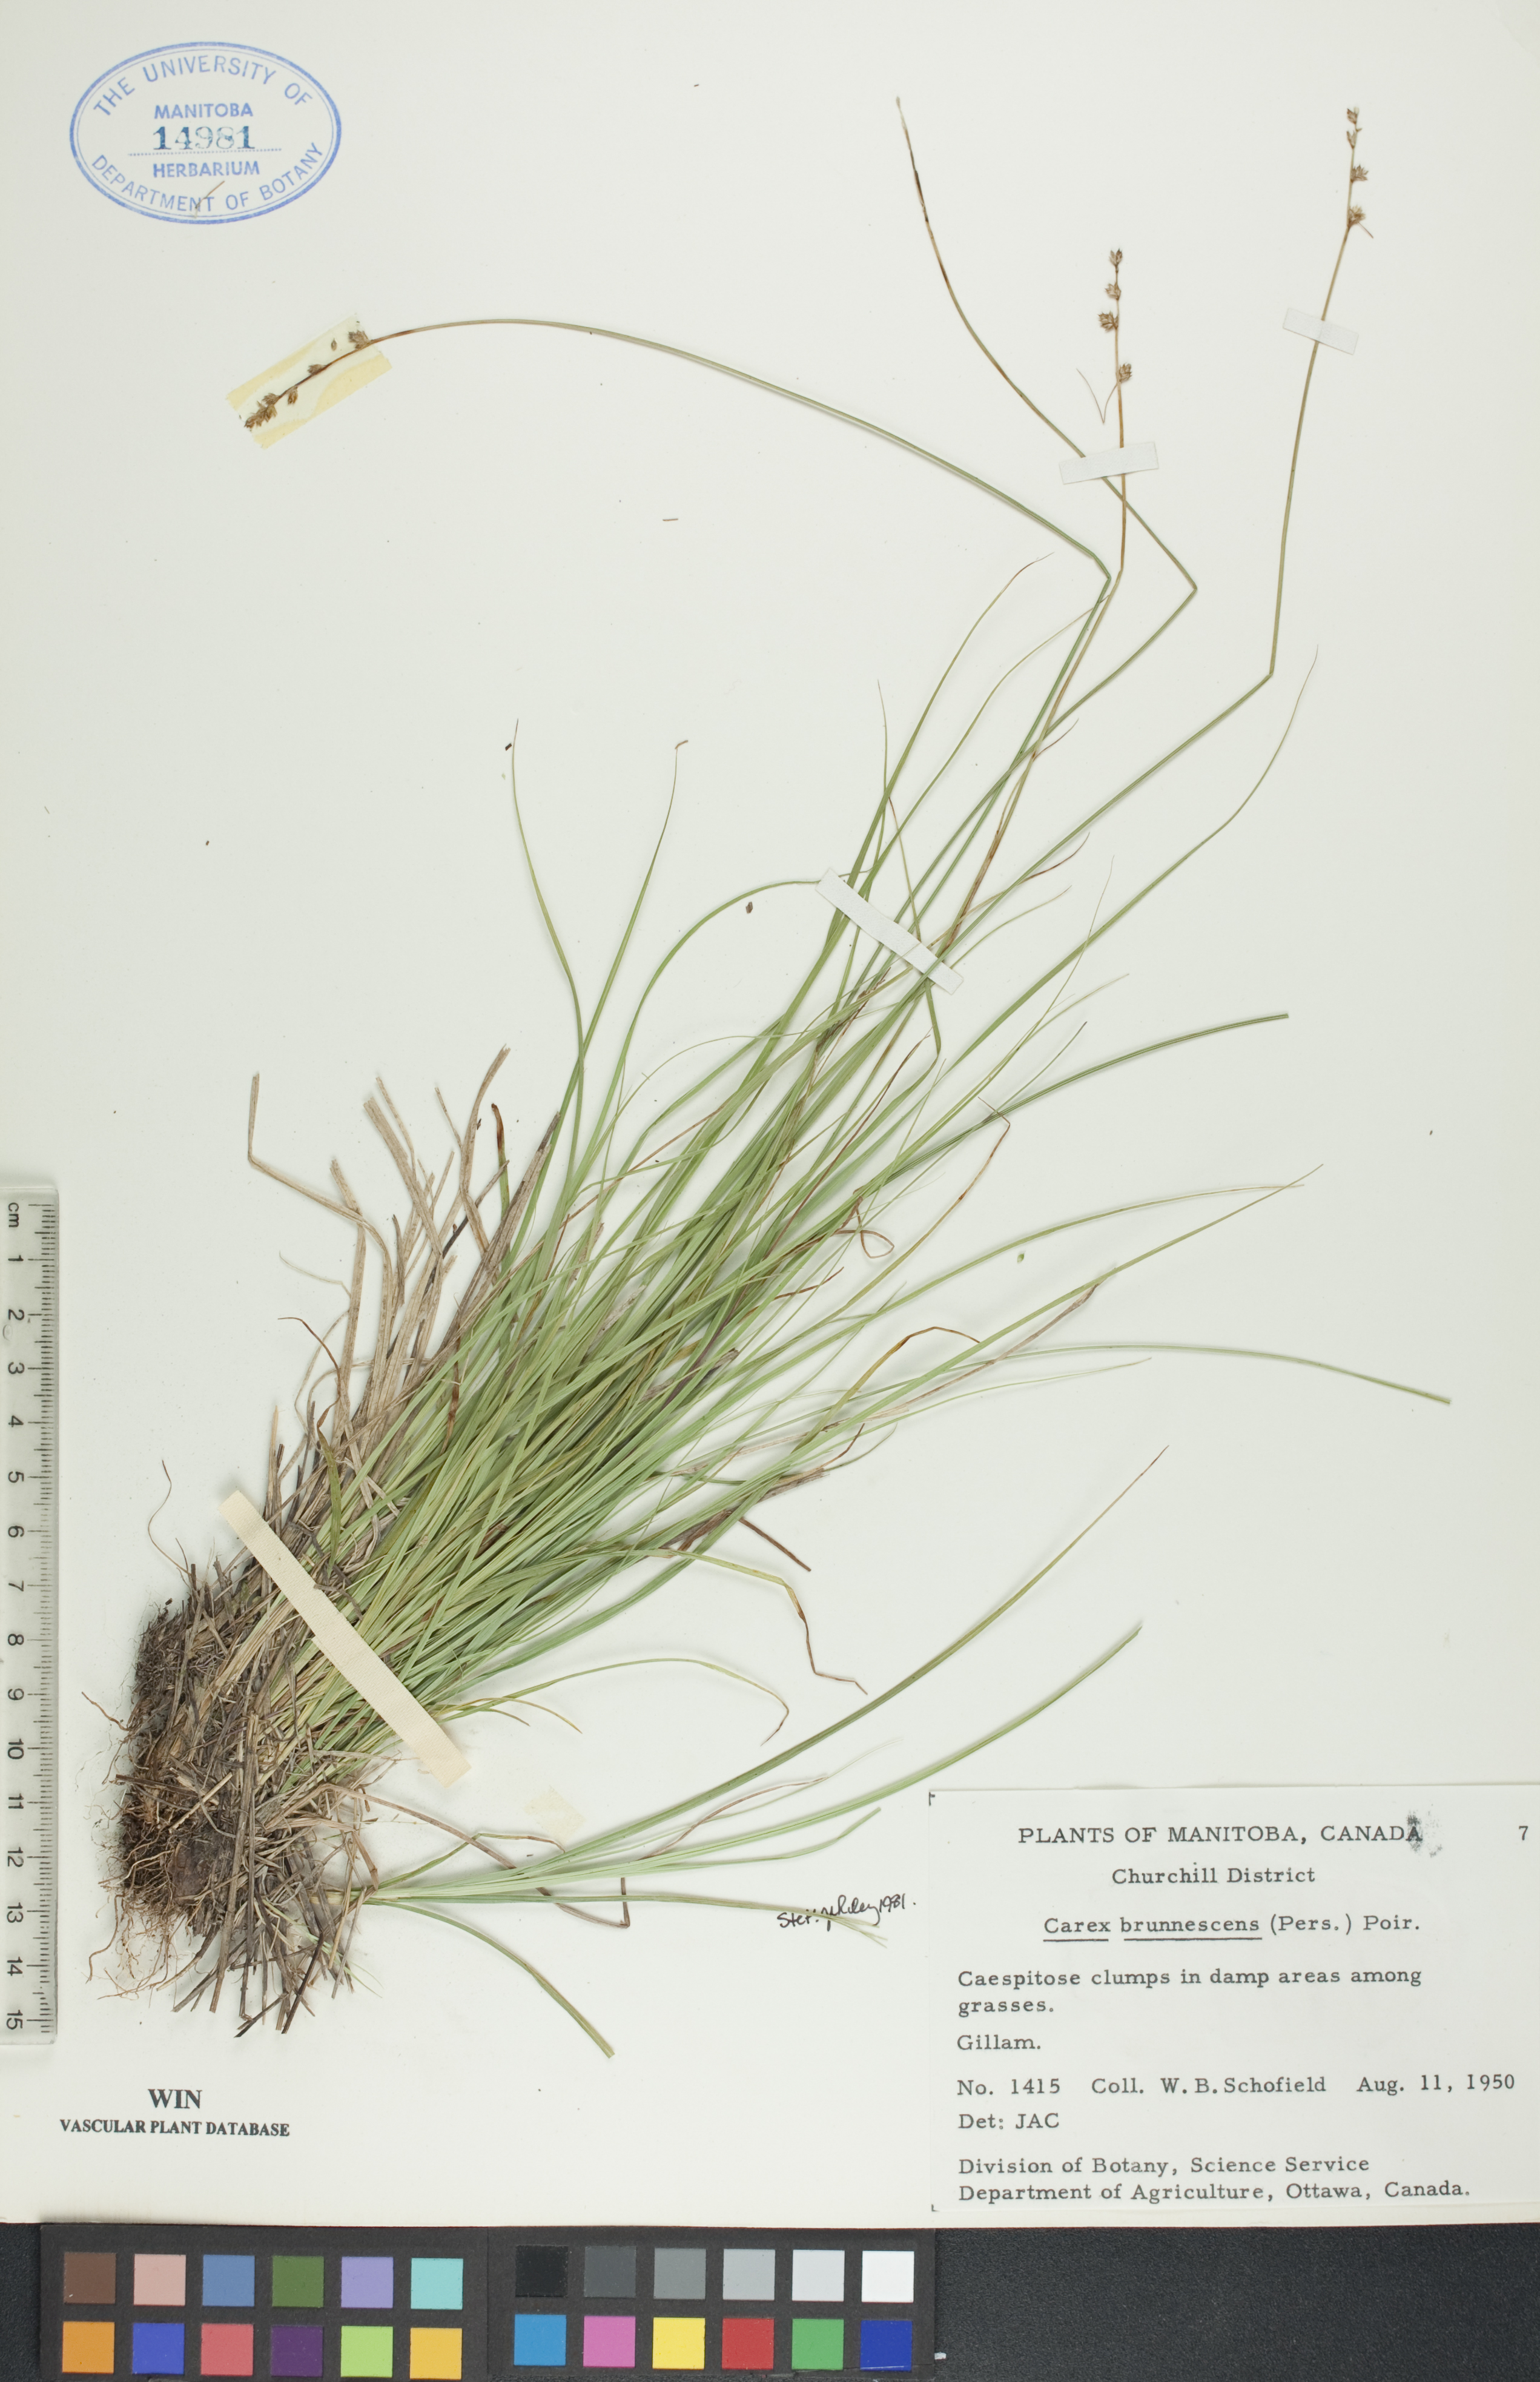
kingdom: Plantae
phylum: Tracheophyta
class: Liliopsida
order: Poales
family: Cyperaceae
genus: Carex
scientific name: Carex brunnescens
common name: Brown sedge
